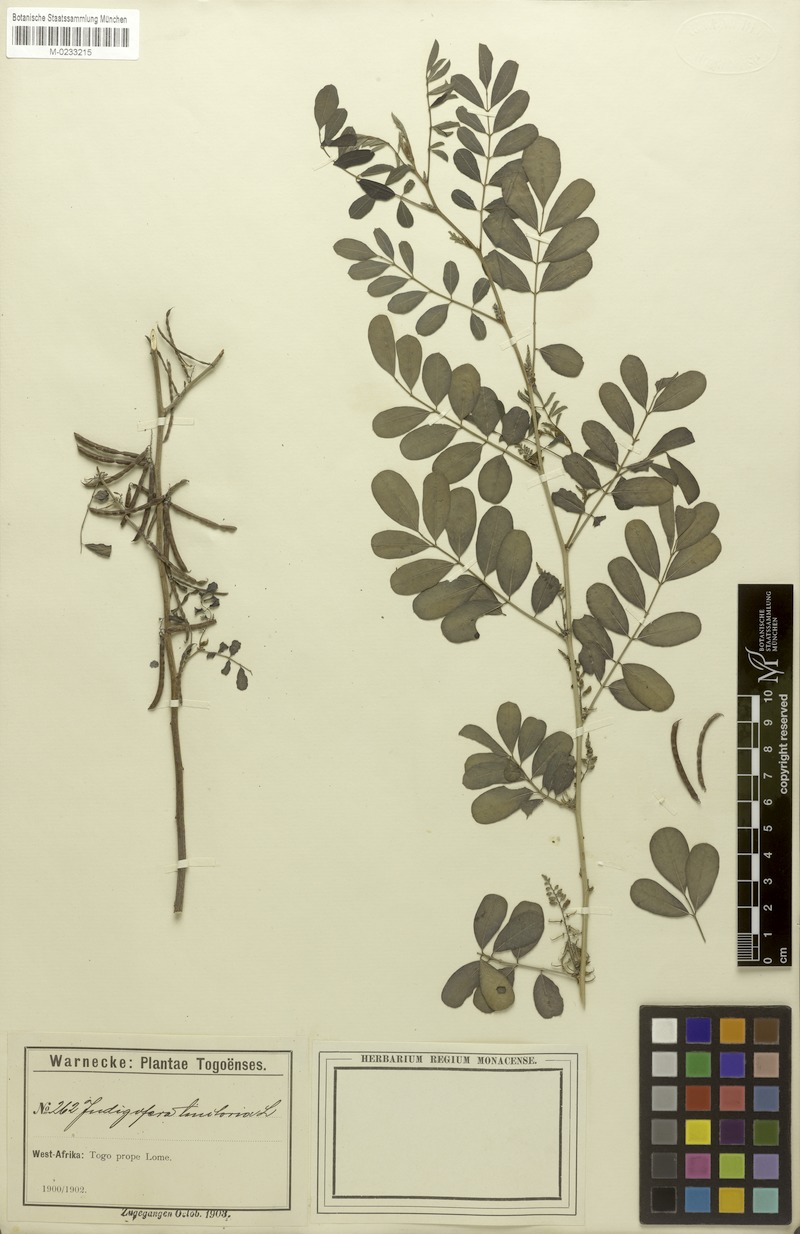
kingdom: Plantae
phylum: Tracheophyta
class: Magnoliopsida
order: Fabales
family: Fabaceae
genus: Indigofera
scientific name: Indigofera tinctoria
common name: True indigo
